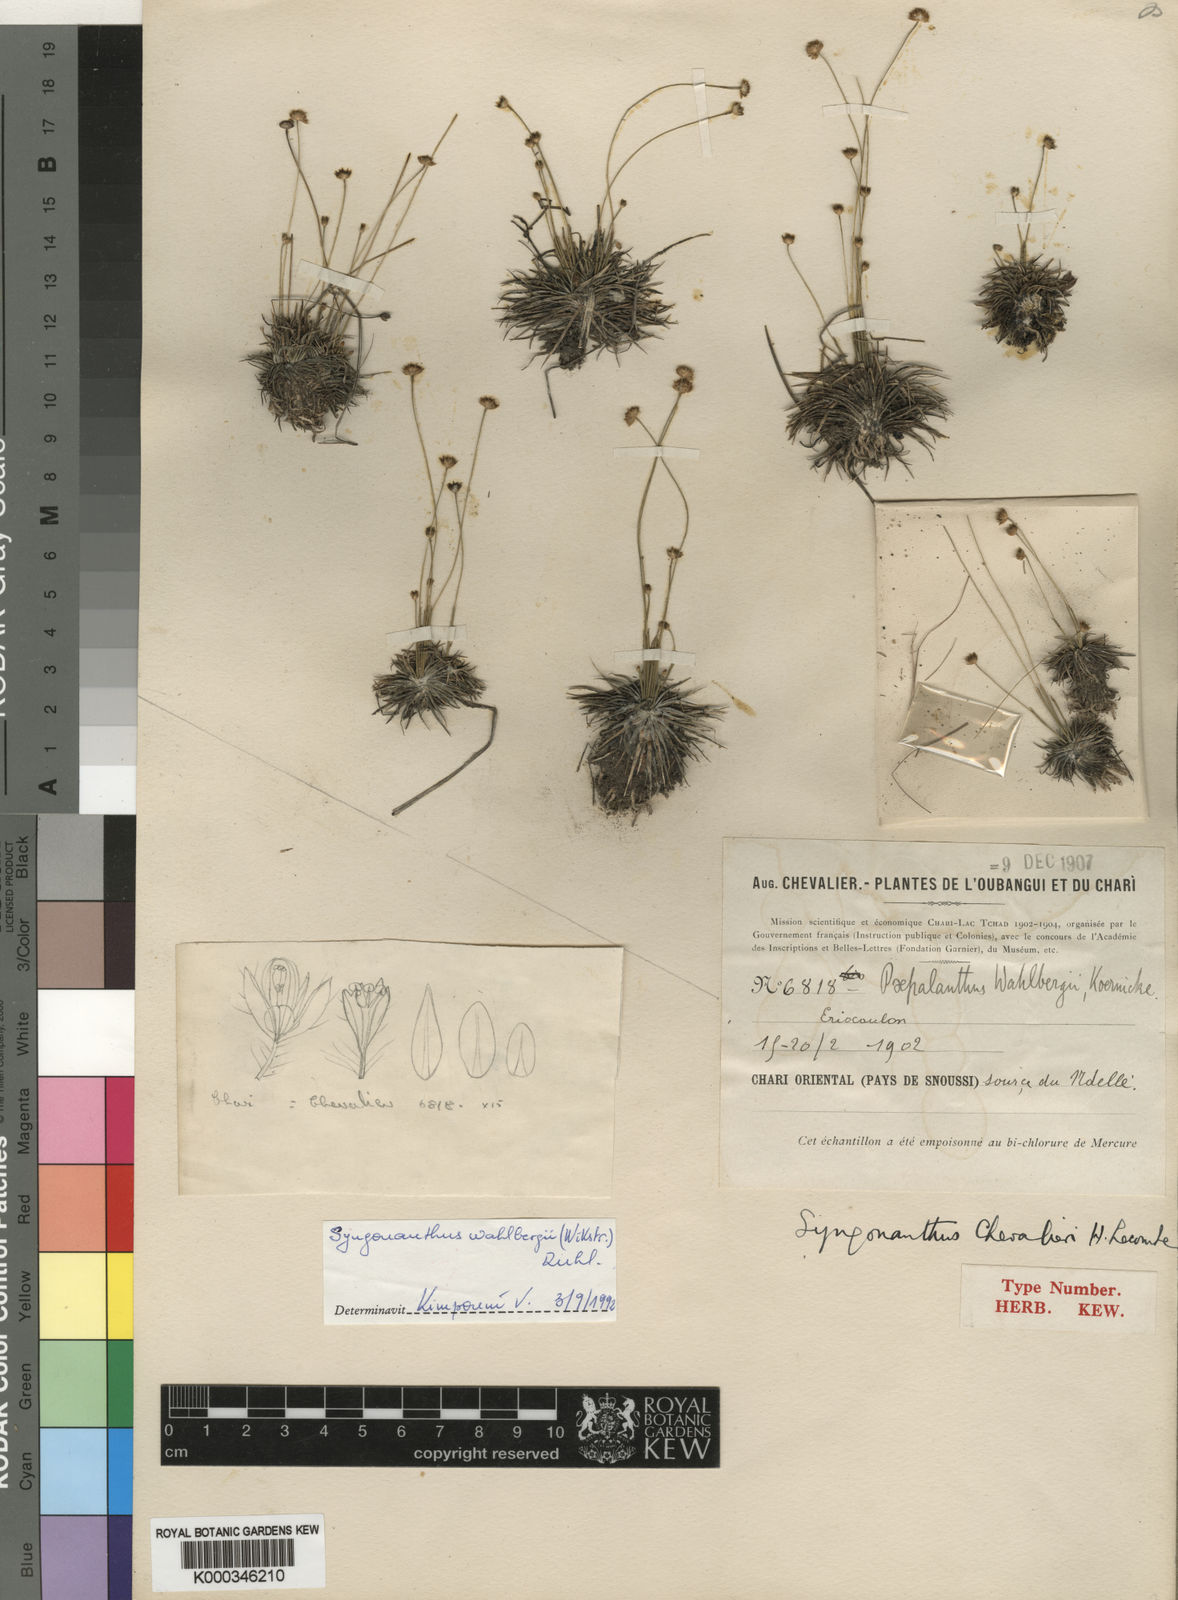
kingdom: Plantae
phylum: Tracheophyta
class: Liliopsida
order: Poales
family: Eriocaulaceae
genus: Syngonanthus
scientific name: Syngonanthus
